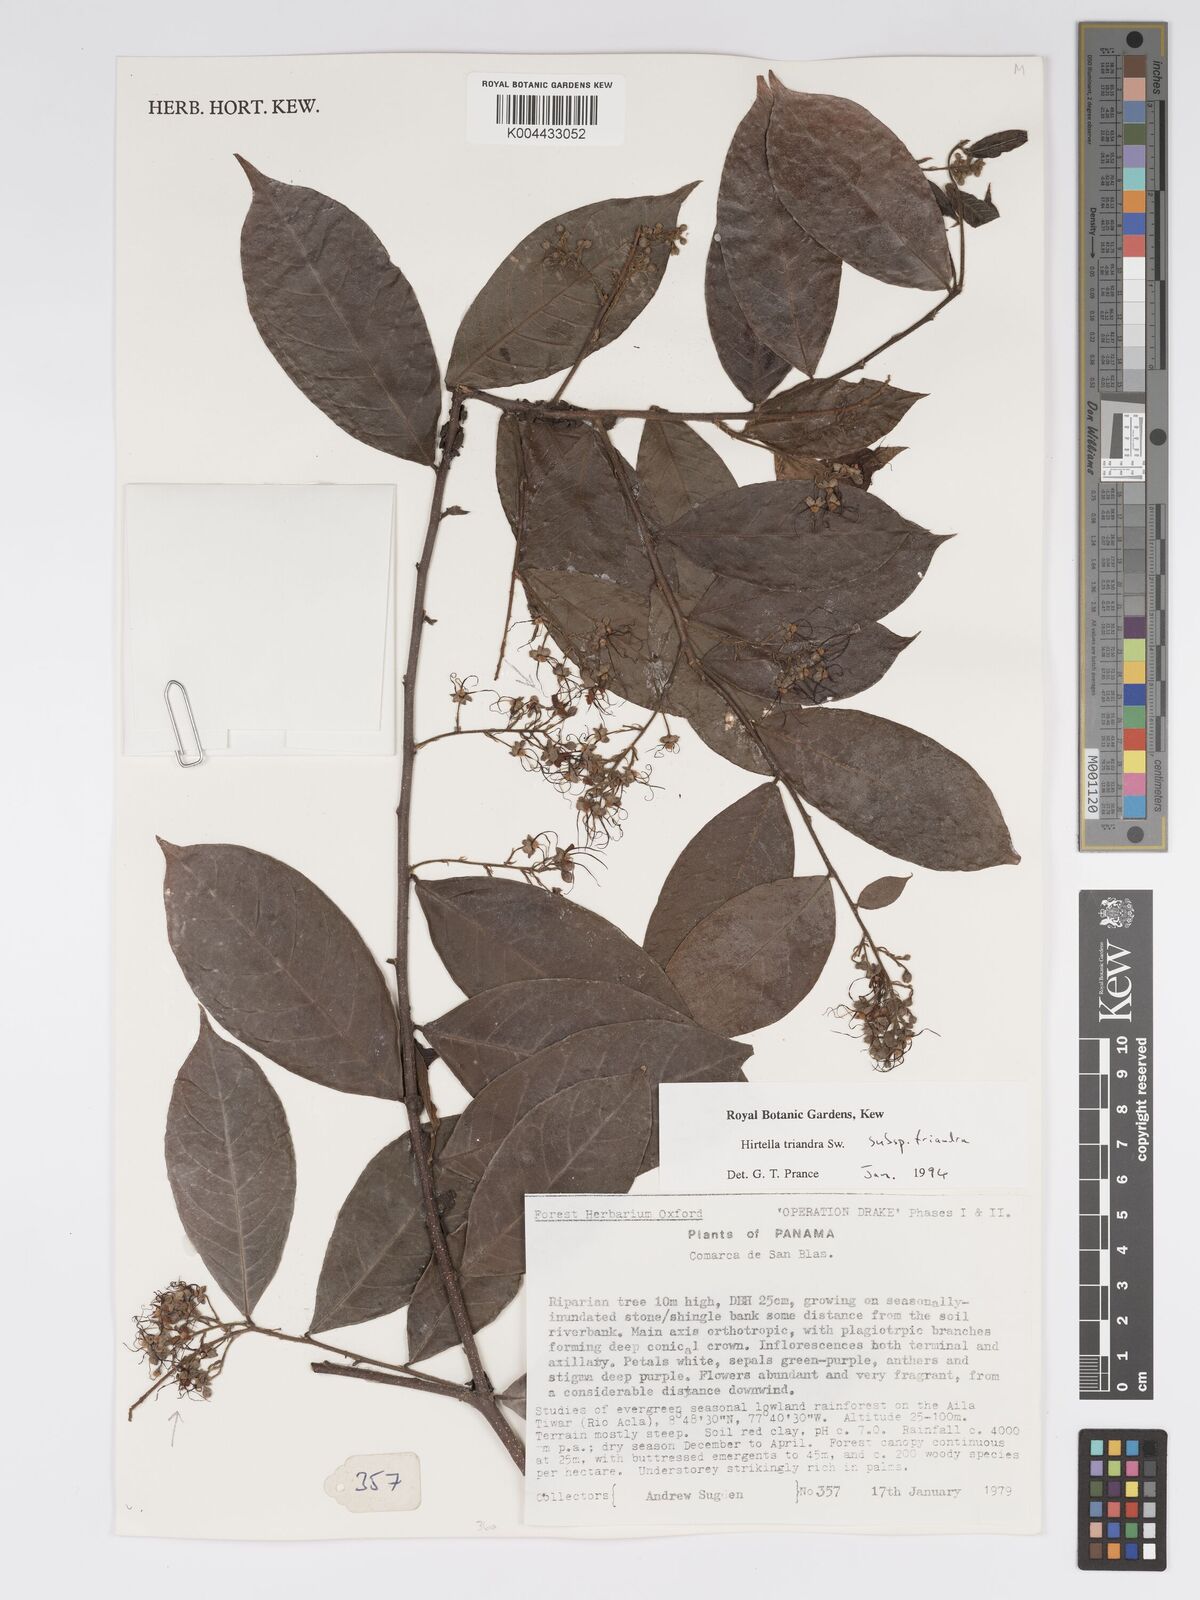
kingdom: Plantae
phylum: Tracheophyta
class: Magnoliopsida
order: Malpighiales
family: Chrysobalanaceae
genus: Hirtella
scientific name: Hirtella triandra
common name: Hairy plum
